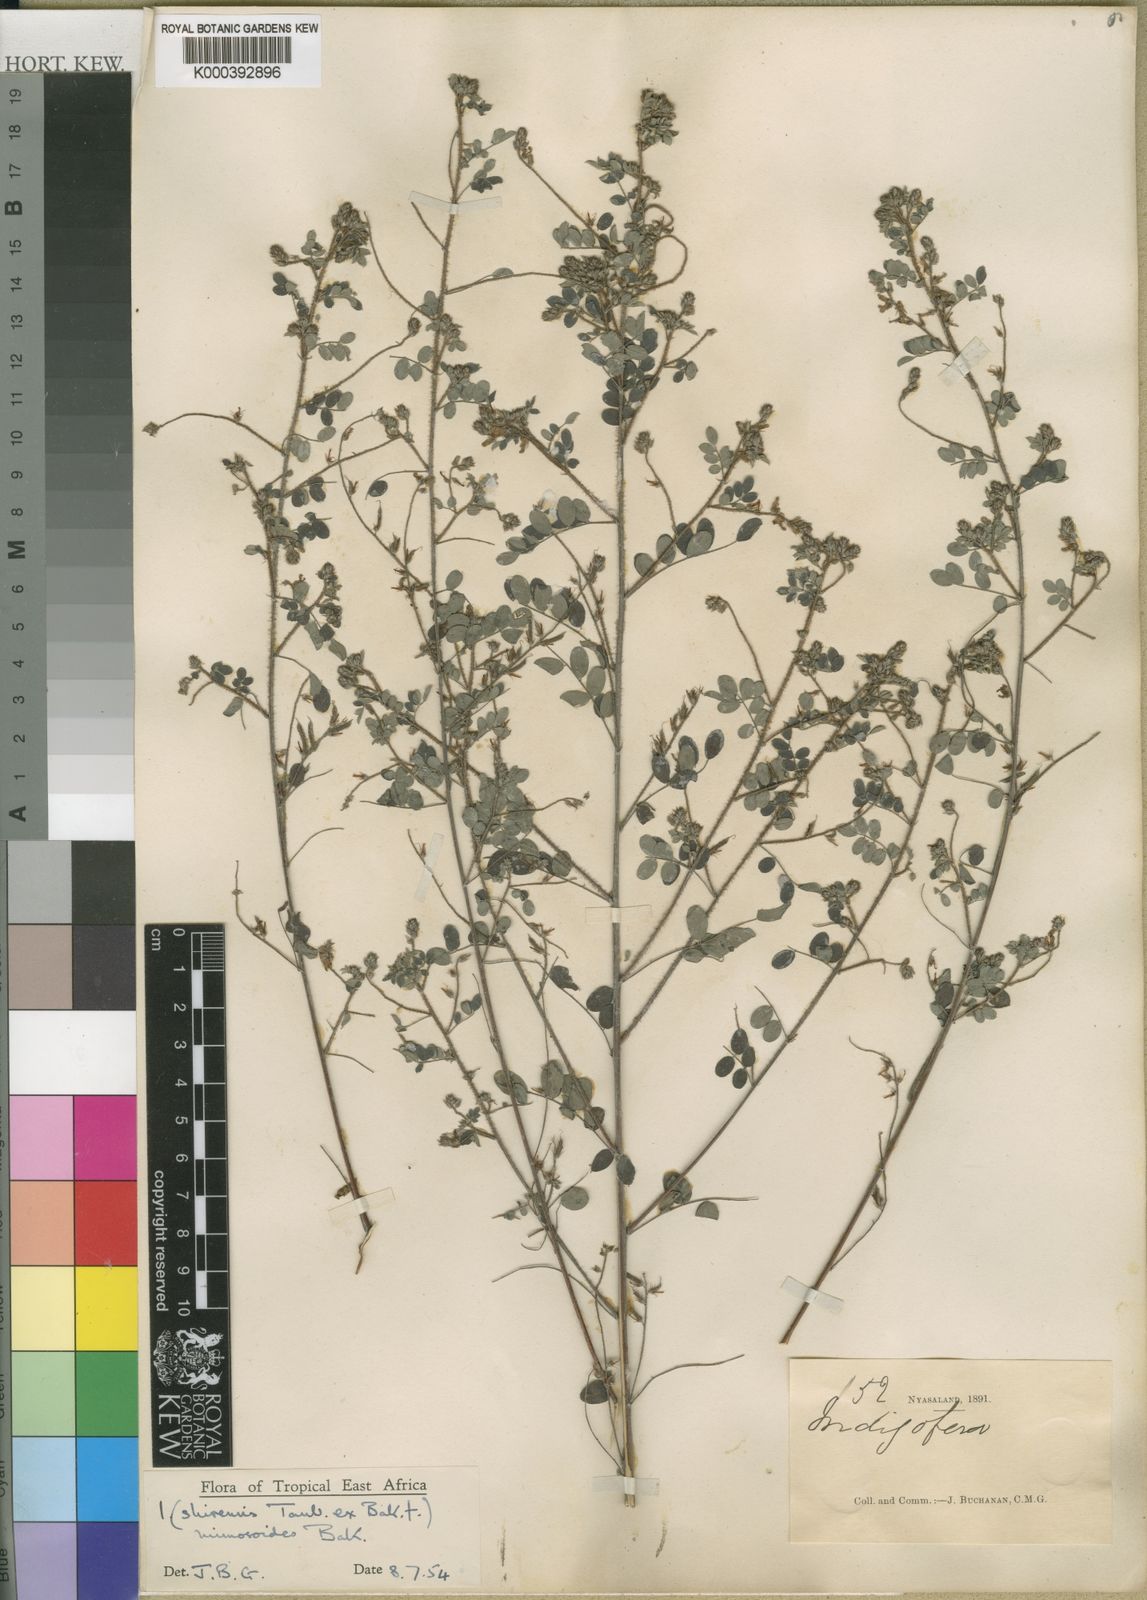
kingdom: Plantae
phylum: Tracheophyta
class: Magnoliopsida
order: Fabales
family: Fabaceae
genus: Indigofera
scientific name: Indigofera mimosoides
